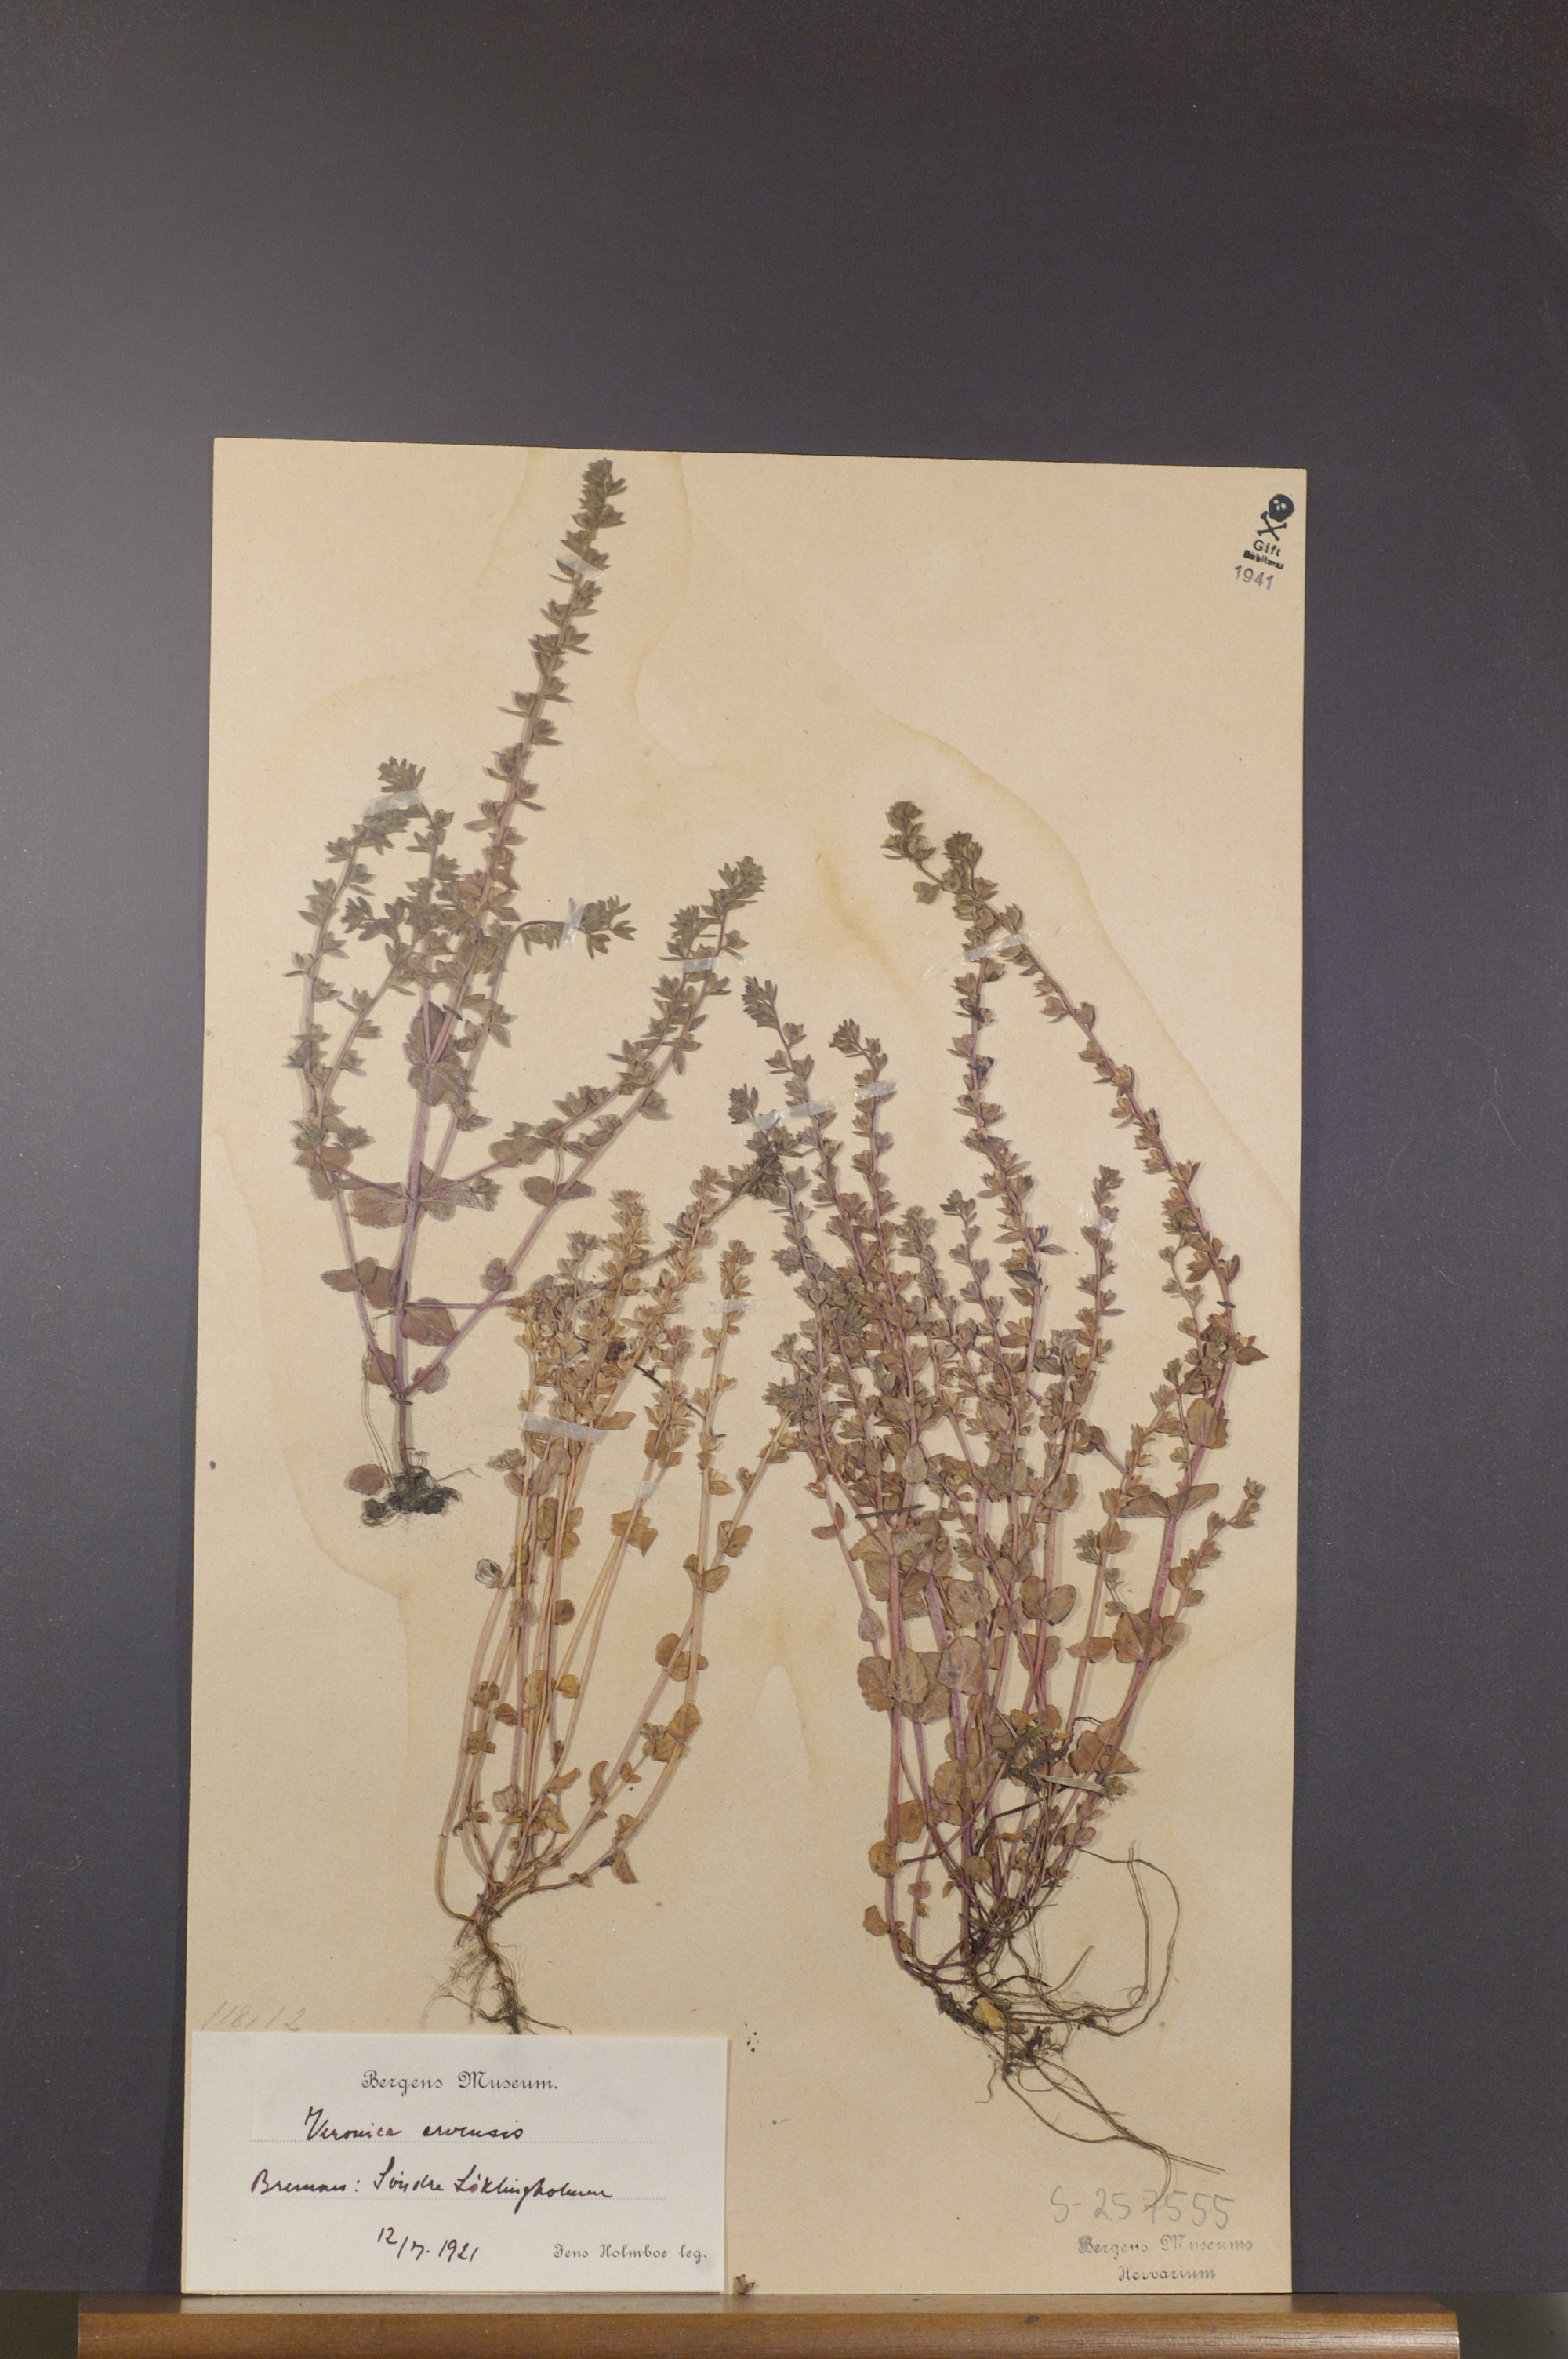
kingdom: Plantae
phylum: Tracheophyta
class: Magnoliopsida
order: Lamiales
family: Plantaginaceae
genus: Veronica
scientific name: Veronica arvensis
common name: Corn speedwell
